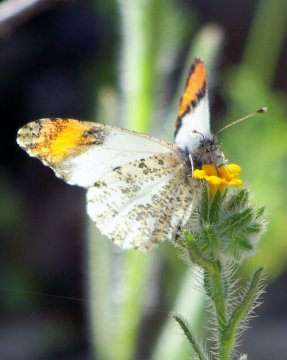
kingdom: Animalia
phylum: Arthropoda
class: Insecta
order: Lepidoptera
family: Pieridae
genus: Anthocharis
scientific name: Anthocharis sara
